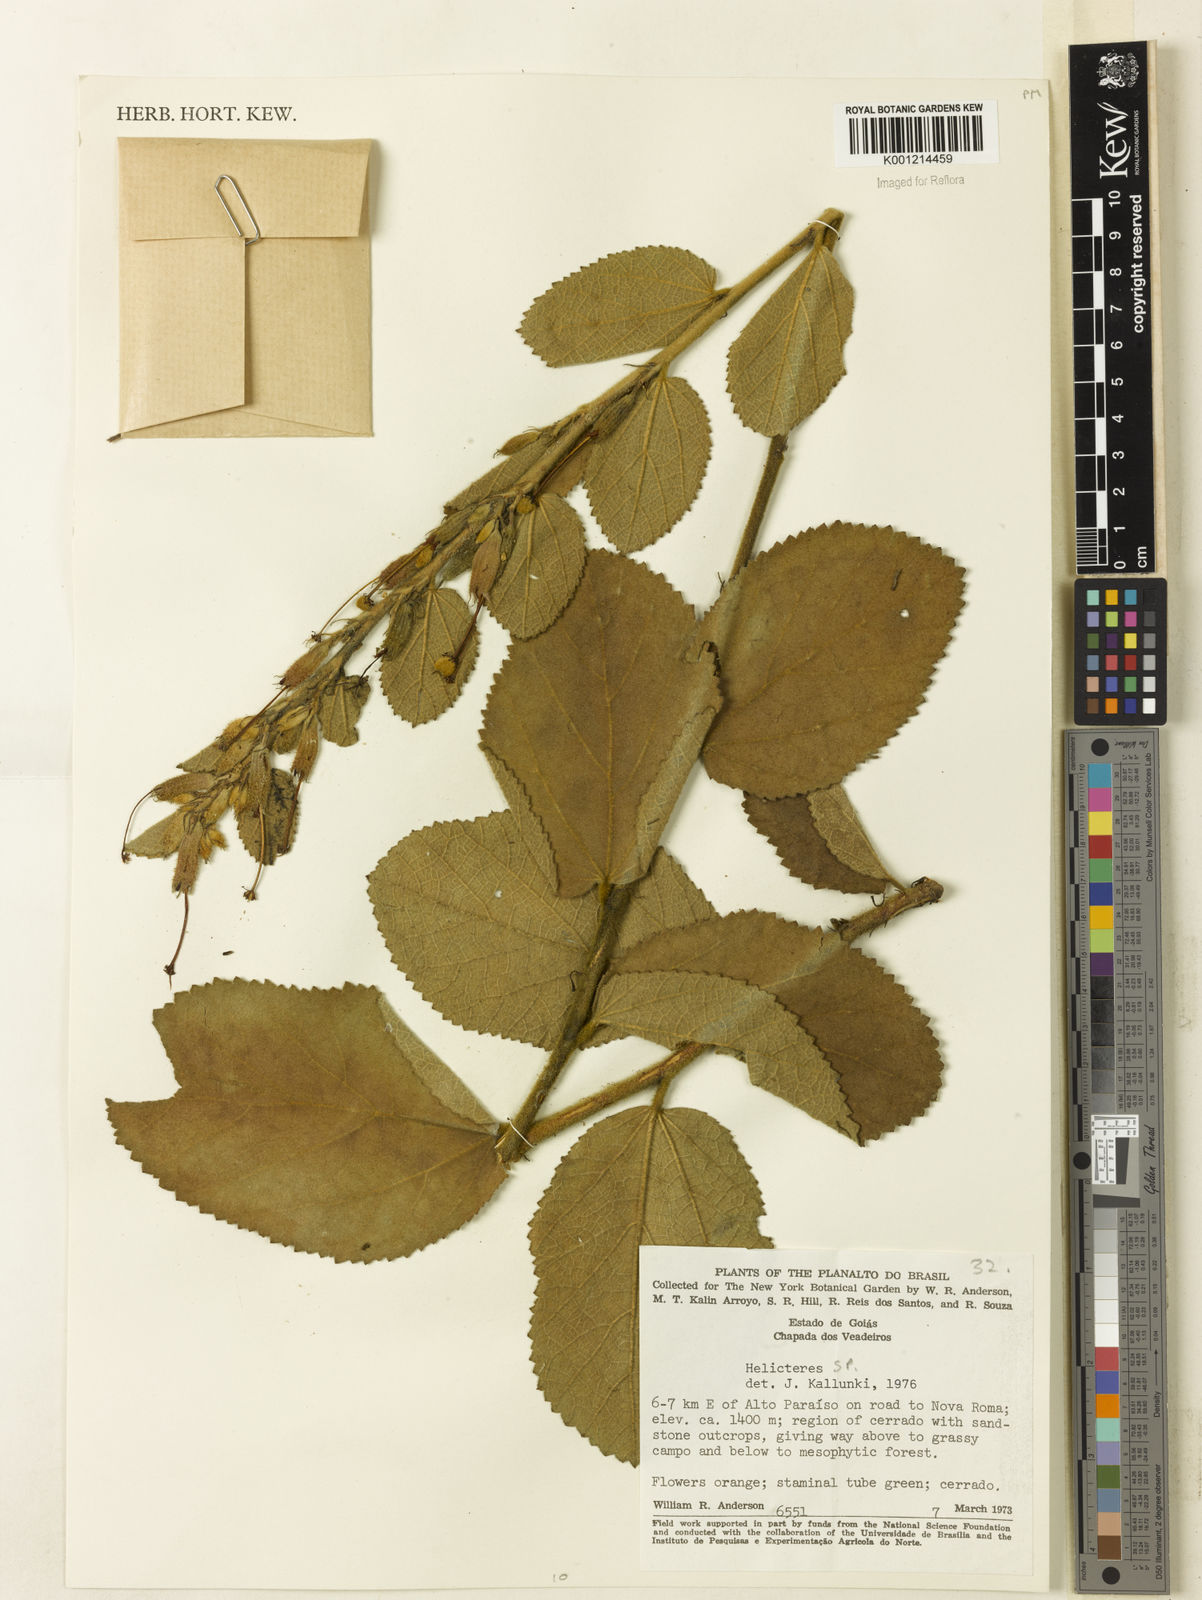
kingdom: Plantae
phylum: Tracheophyta
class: Magnoliopsida
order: Malvales
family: Malvaceae
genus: Helicteres
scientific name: Helicteres
